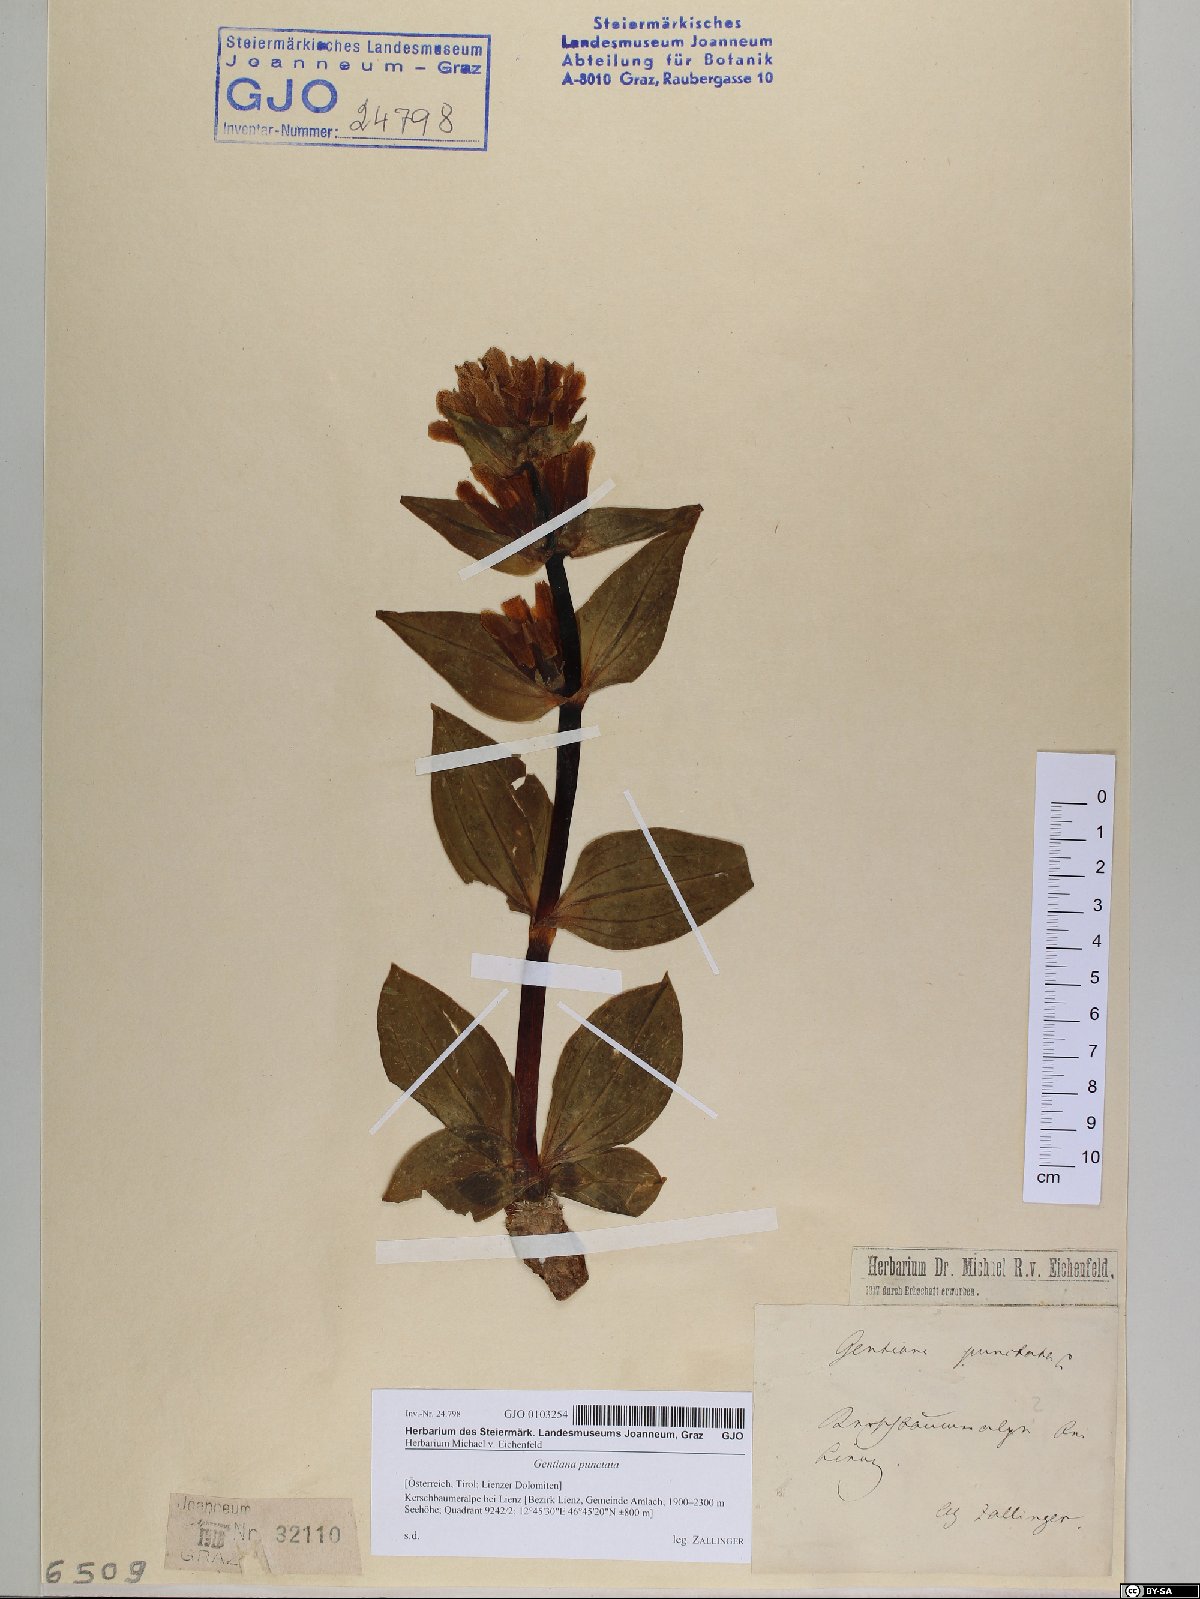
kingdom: Plantae
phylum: Tracheophyta
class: Magnoliopsida
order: Gentianales
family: Gentianaceae
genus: Gentiana
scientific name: Gentiana punctata
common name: Spotted gentian
